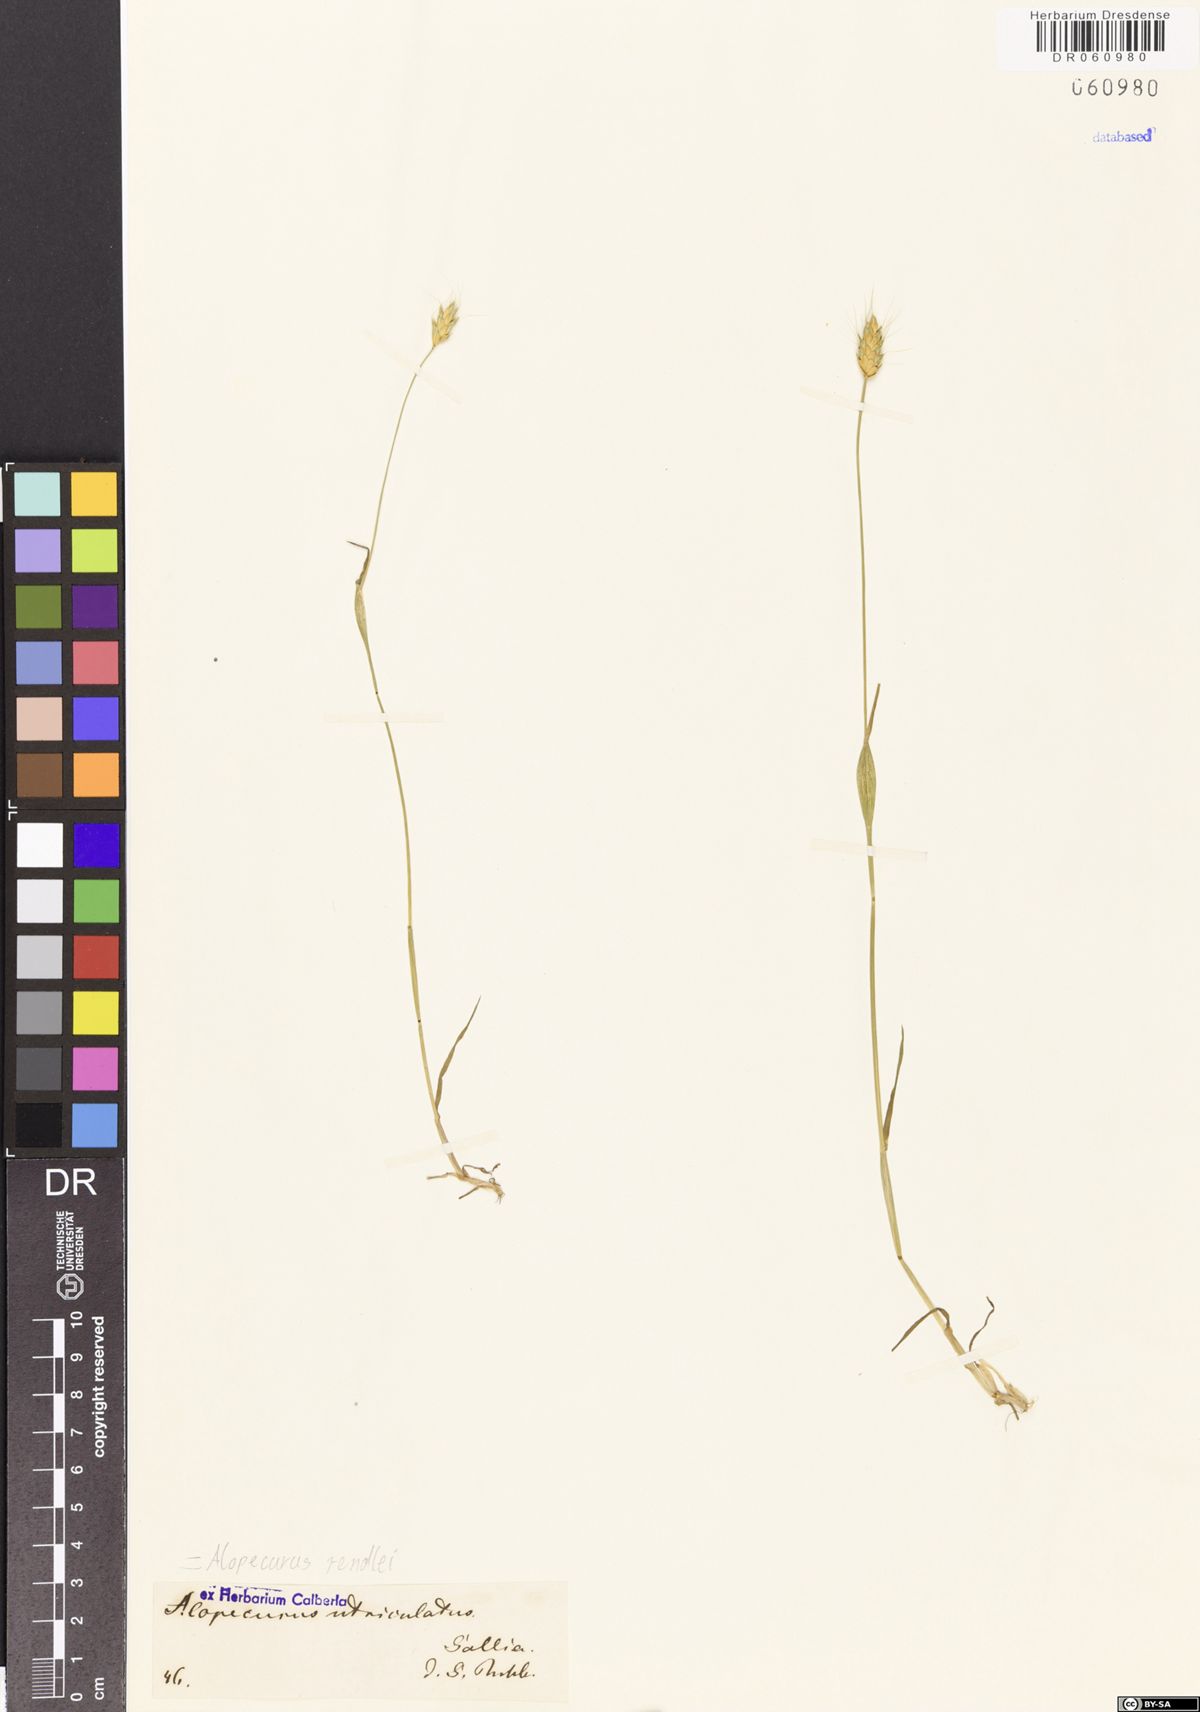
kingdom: Plantae
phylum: Tracheophyta
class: Liliopsida
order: Poales
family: Poaceae
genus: Alopecurus
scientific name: Alopecurus rendlei
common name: Rendle's meadow foxtail
